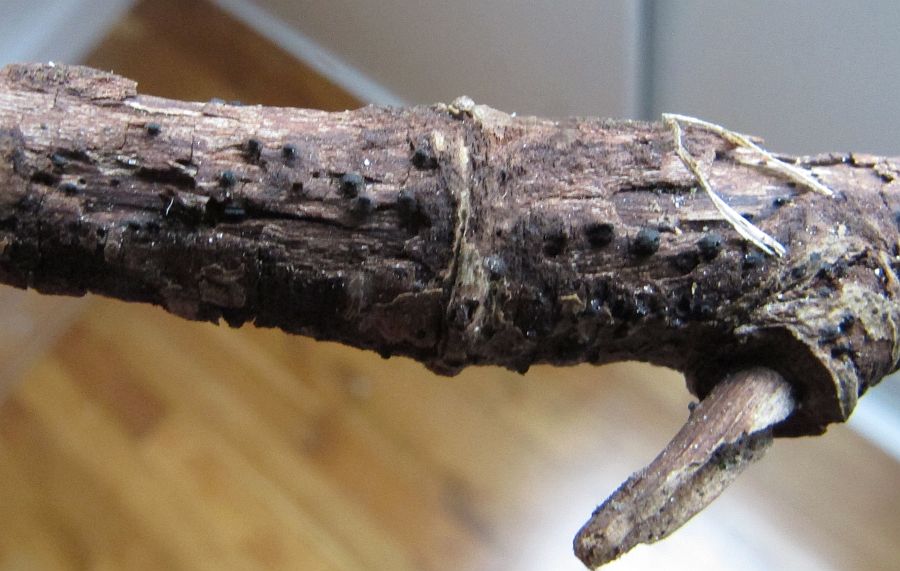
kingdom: Fungi
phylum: Ascomycota
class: Dothideomycetes
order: Pleosporales
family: Thyridariaceae
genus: Thyridaria
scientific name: Thyridaria macrostomoides
